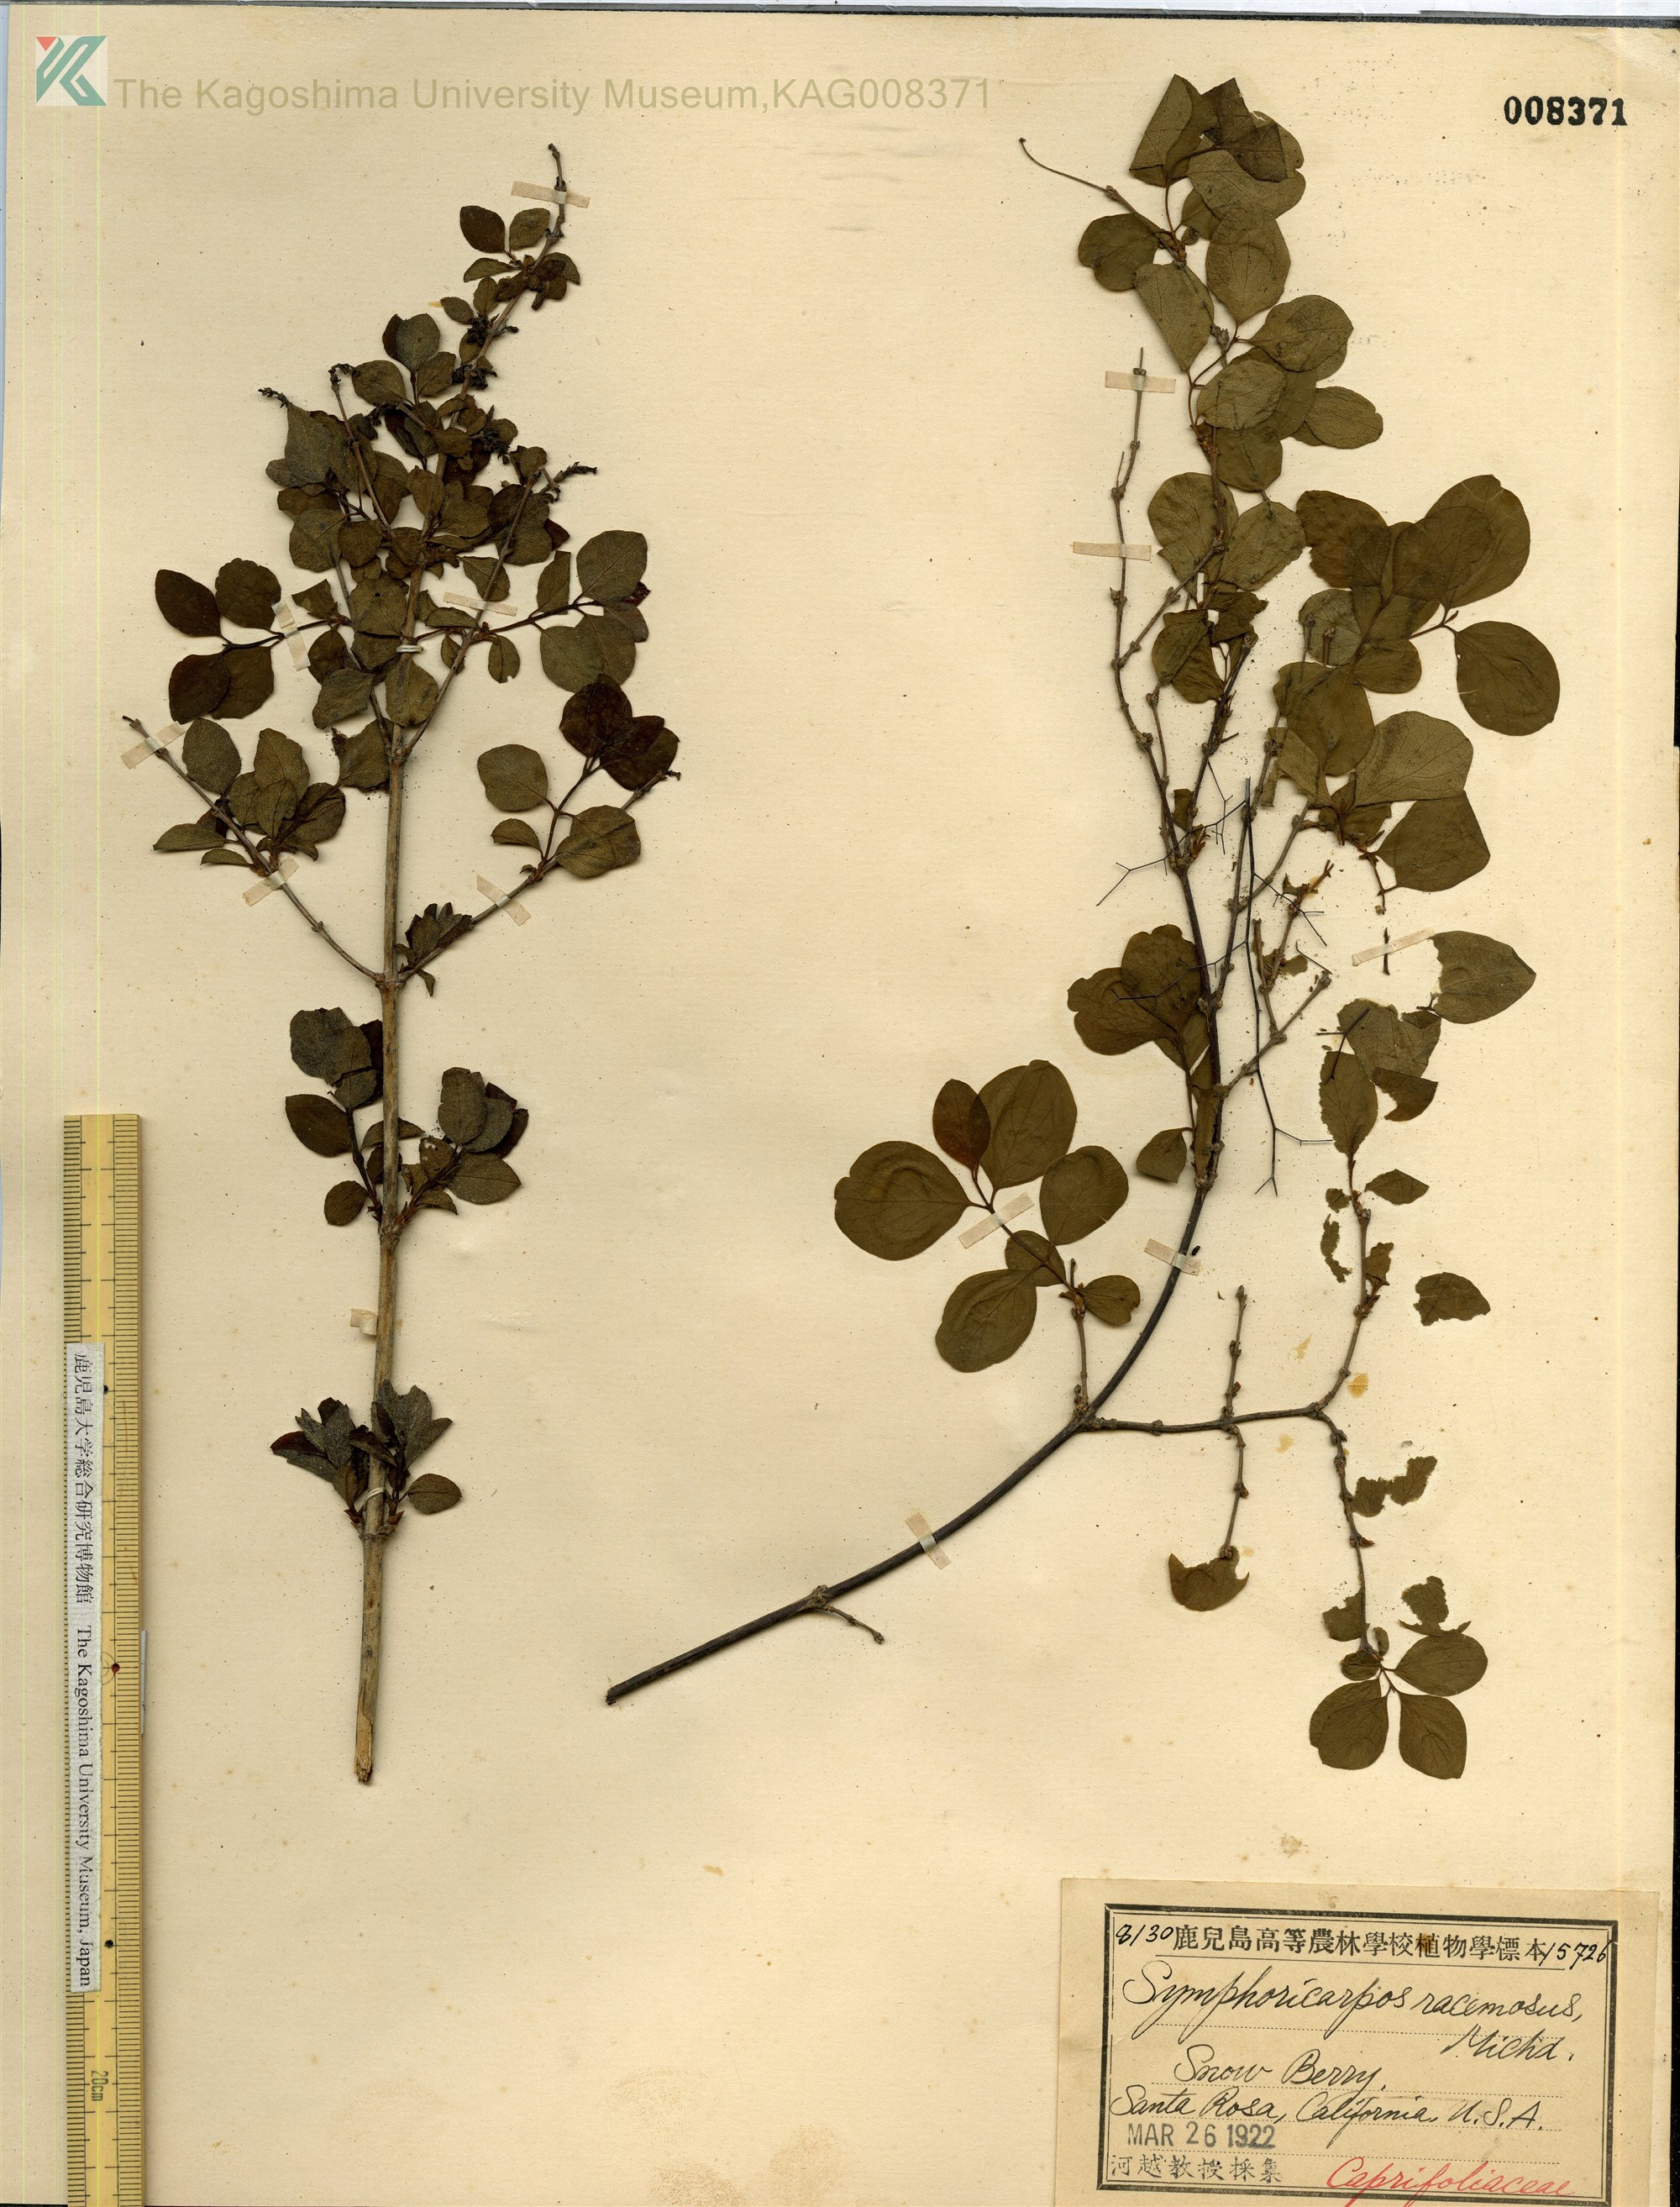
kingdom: Plantae
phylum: Tracheophyta
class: Magnoliopsida
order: Dipsacales
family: Caprifoliaceae
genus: Symphoricarpos
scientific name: Symphoricarpos albus
